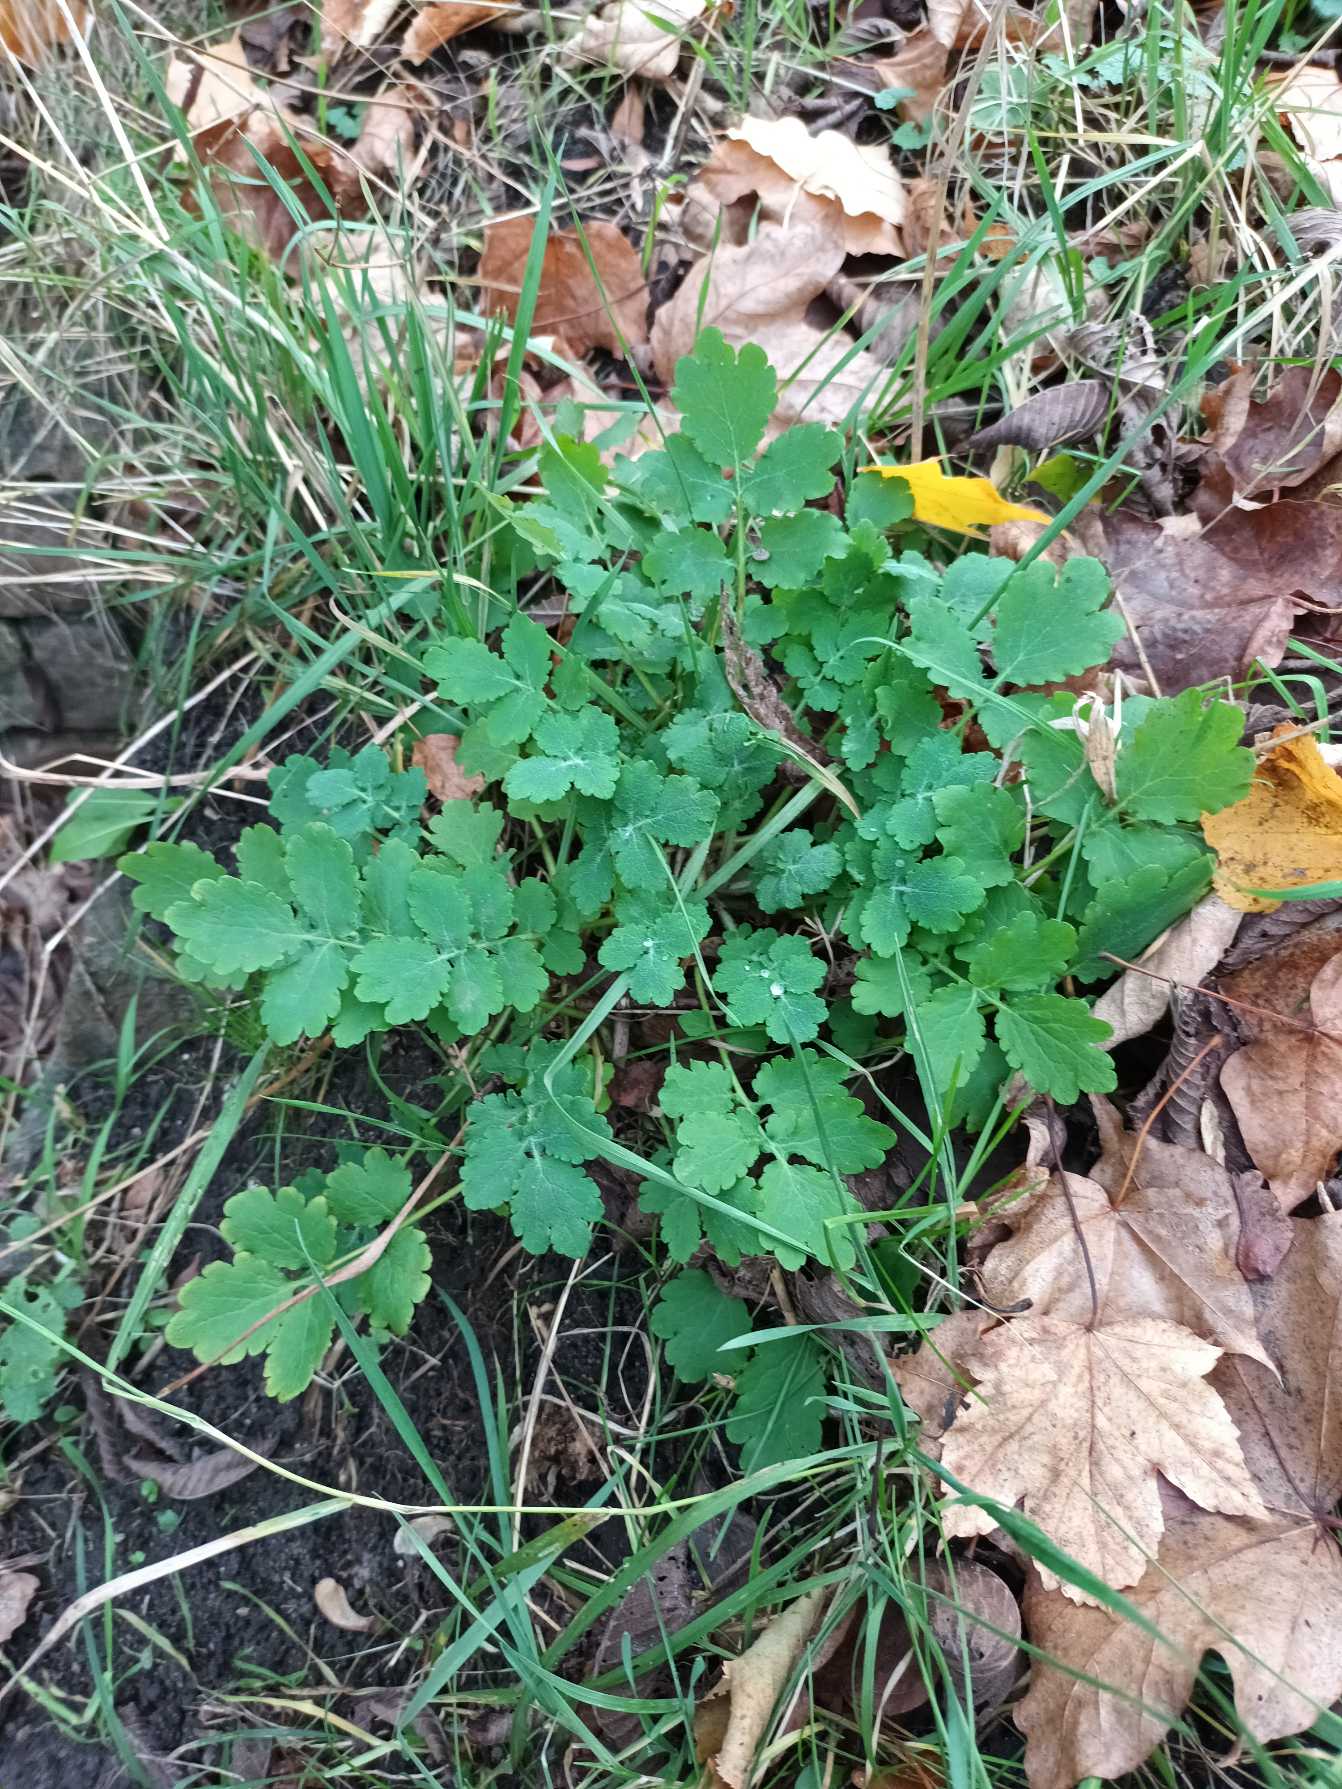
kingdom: Plantae
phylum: Tracheophyta
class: Magnoliopsida
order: Ranunculales
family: Papaveraceae
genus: Chelidonium
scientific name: Chelidonium majus
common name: Svaleurt
